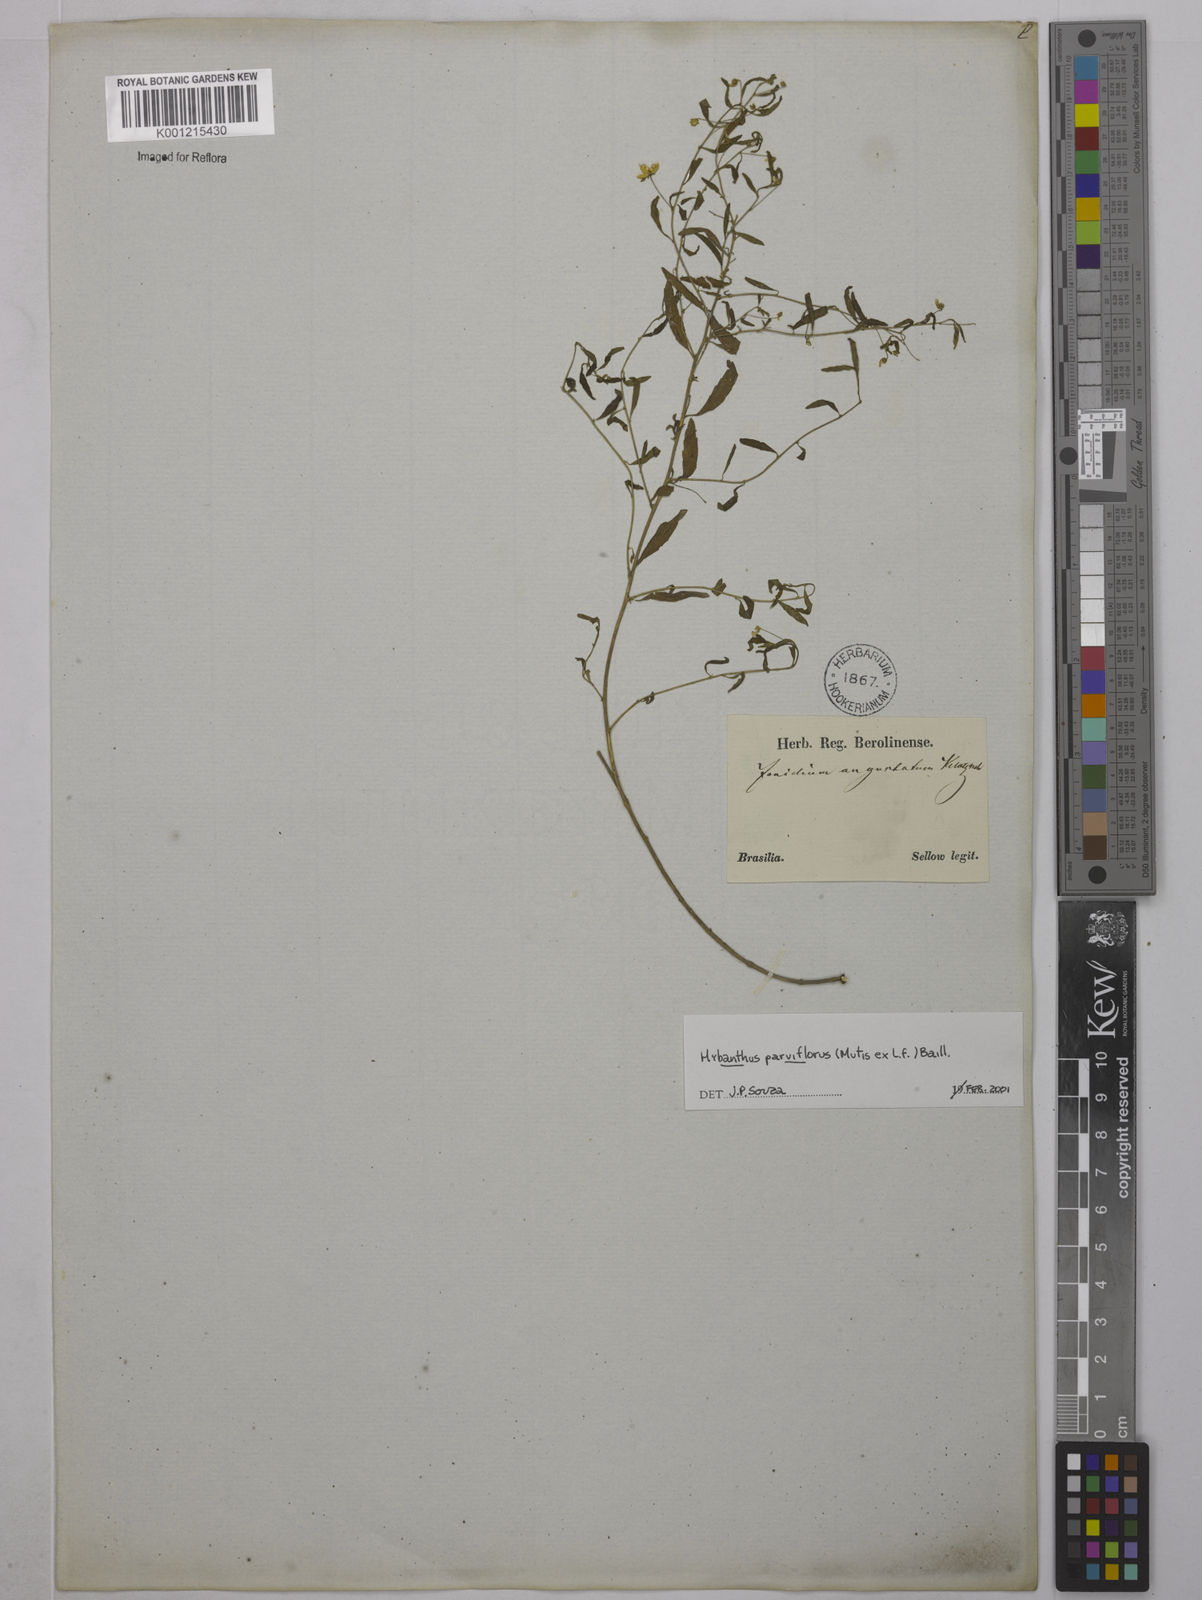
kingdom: Plantae
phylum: Tracheophyta
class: Magnoliopsida
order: Malpighiales
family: Violaceae
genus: Pombalia
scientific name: Pombalia parviflora
